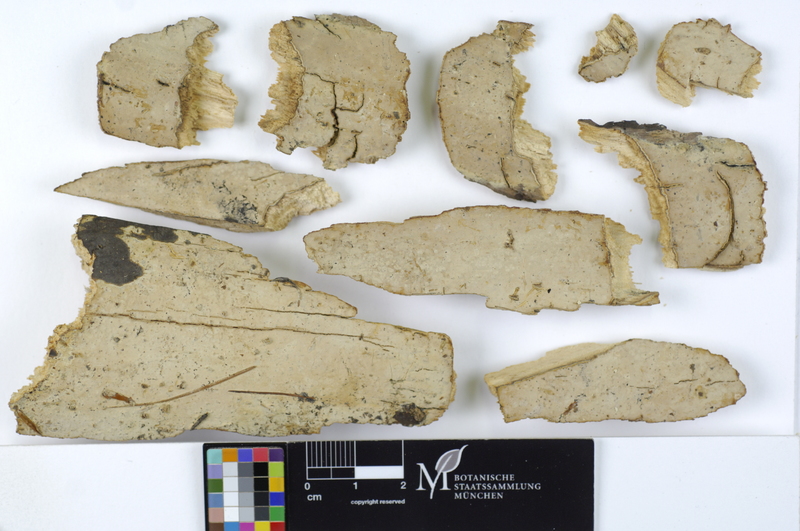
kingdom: Fungi
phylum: Basidiomycota
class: Agaricomycetes
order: Russulales
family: Stereaceae
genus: Gloeocystidiellum
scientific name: Gloeocystidiellum luridum
